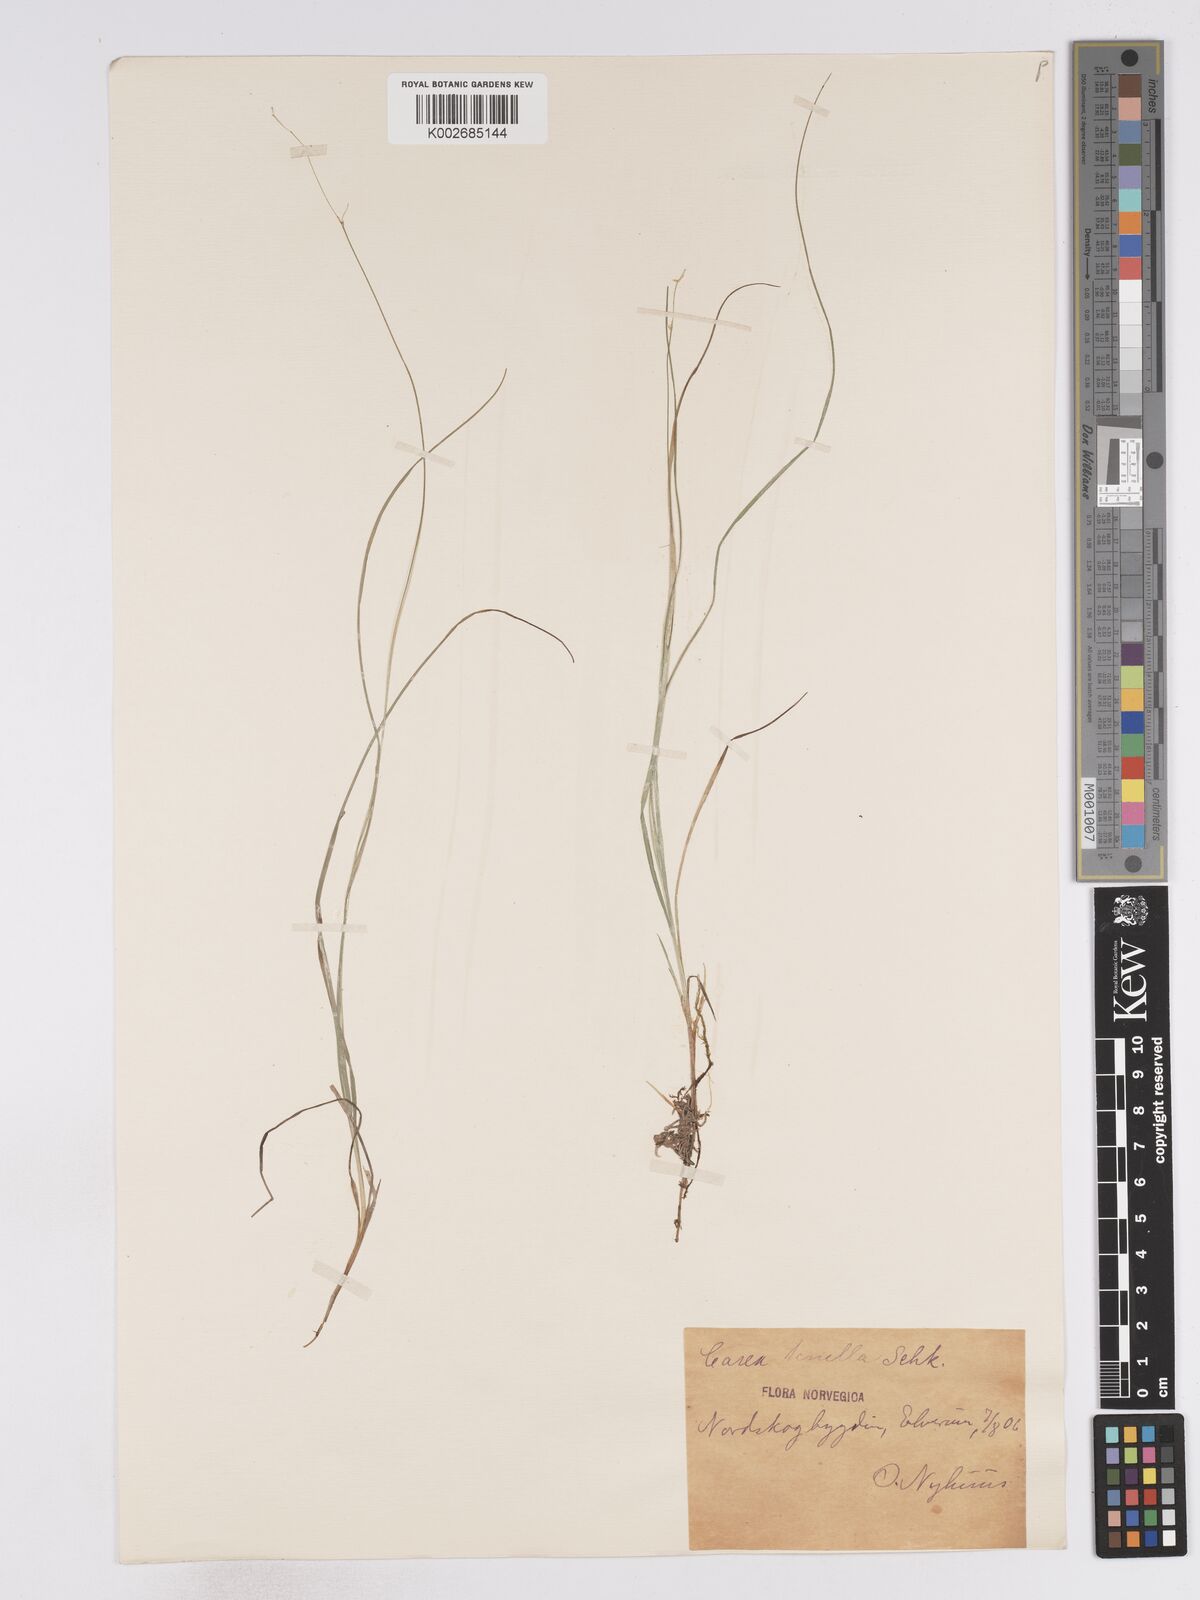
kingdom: Plantae
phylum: Tracheophyta
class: Liliopsida
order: Poales
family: Cyperaceae
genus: Carex
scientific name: Carex disperma
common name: Short-leaved sedge
